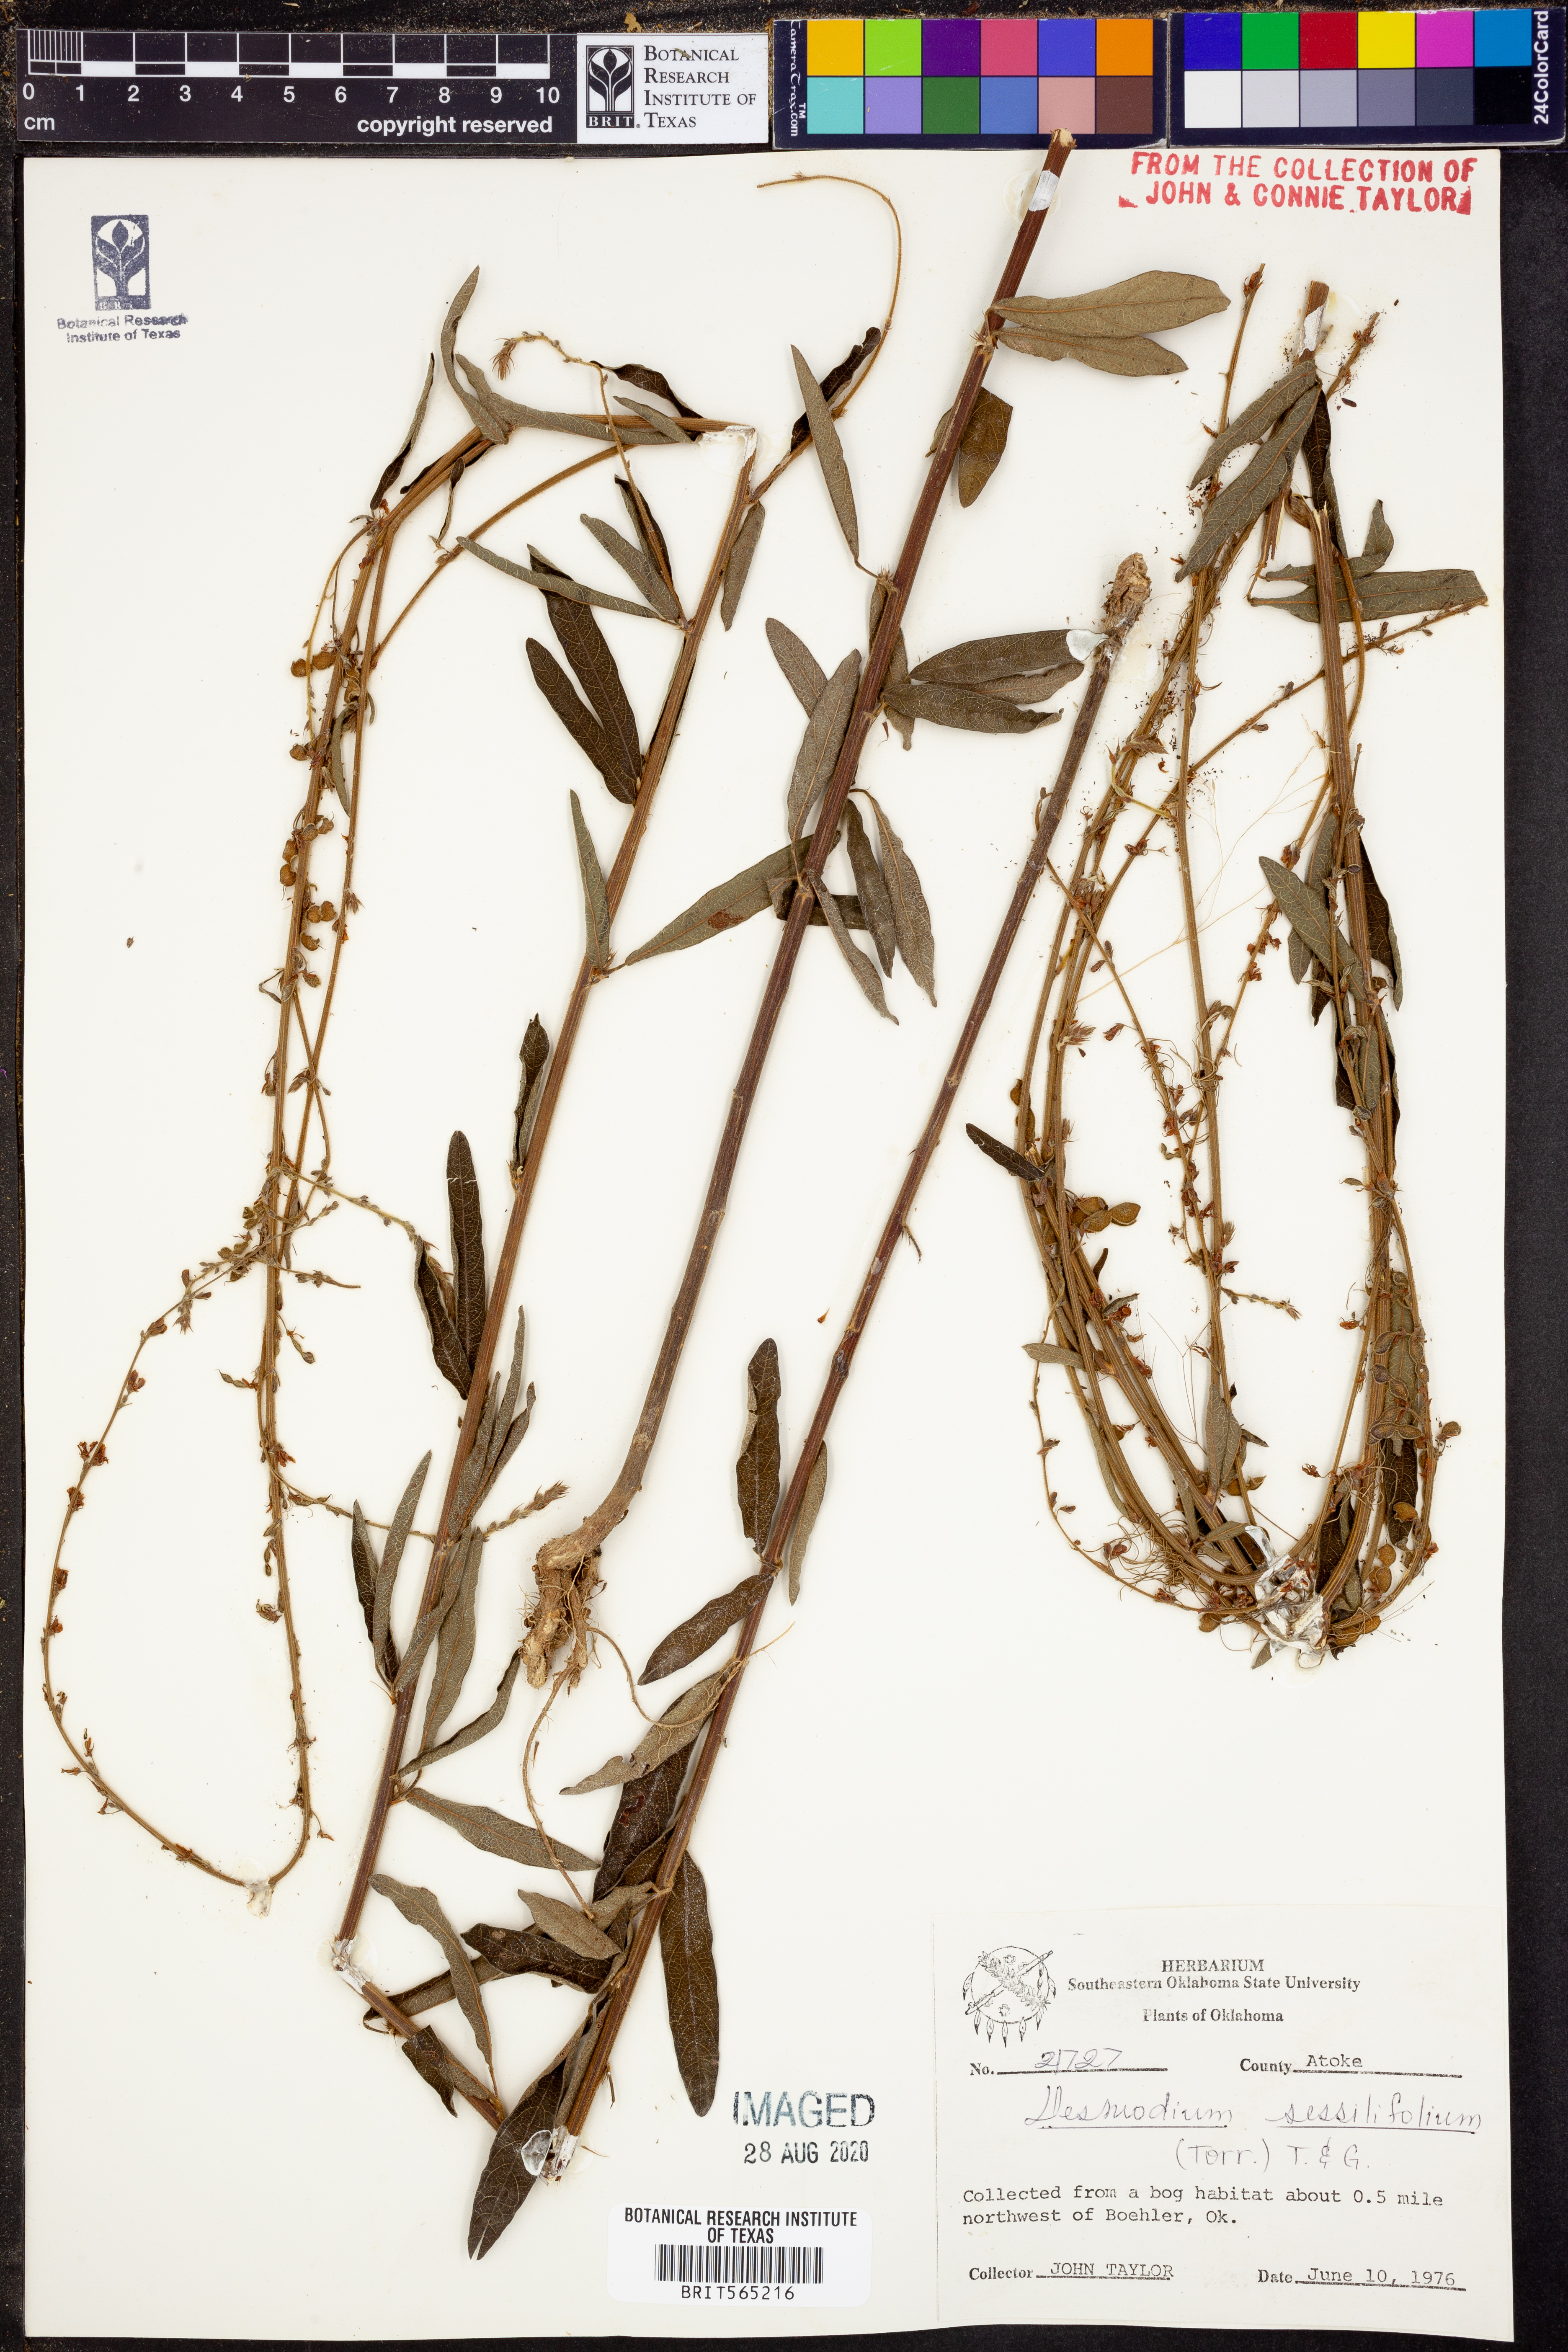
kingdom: Plantae
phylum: Tracheophyta
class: Magnoliopsida
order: Fabales
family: Fabaceae
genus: Desmodium
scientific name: Desmodium sessilifolium
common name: Sessile tick-clover
